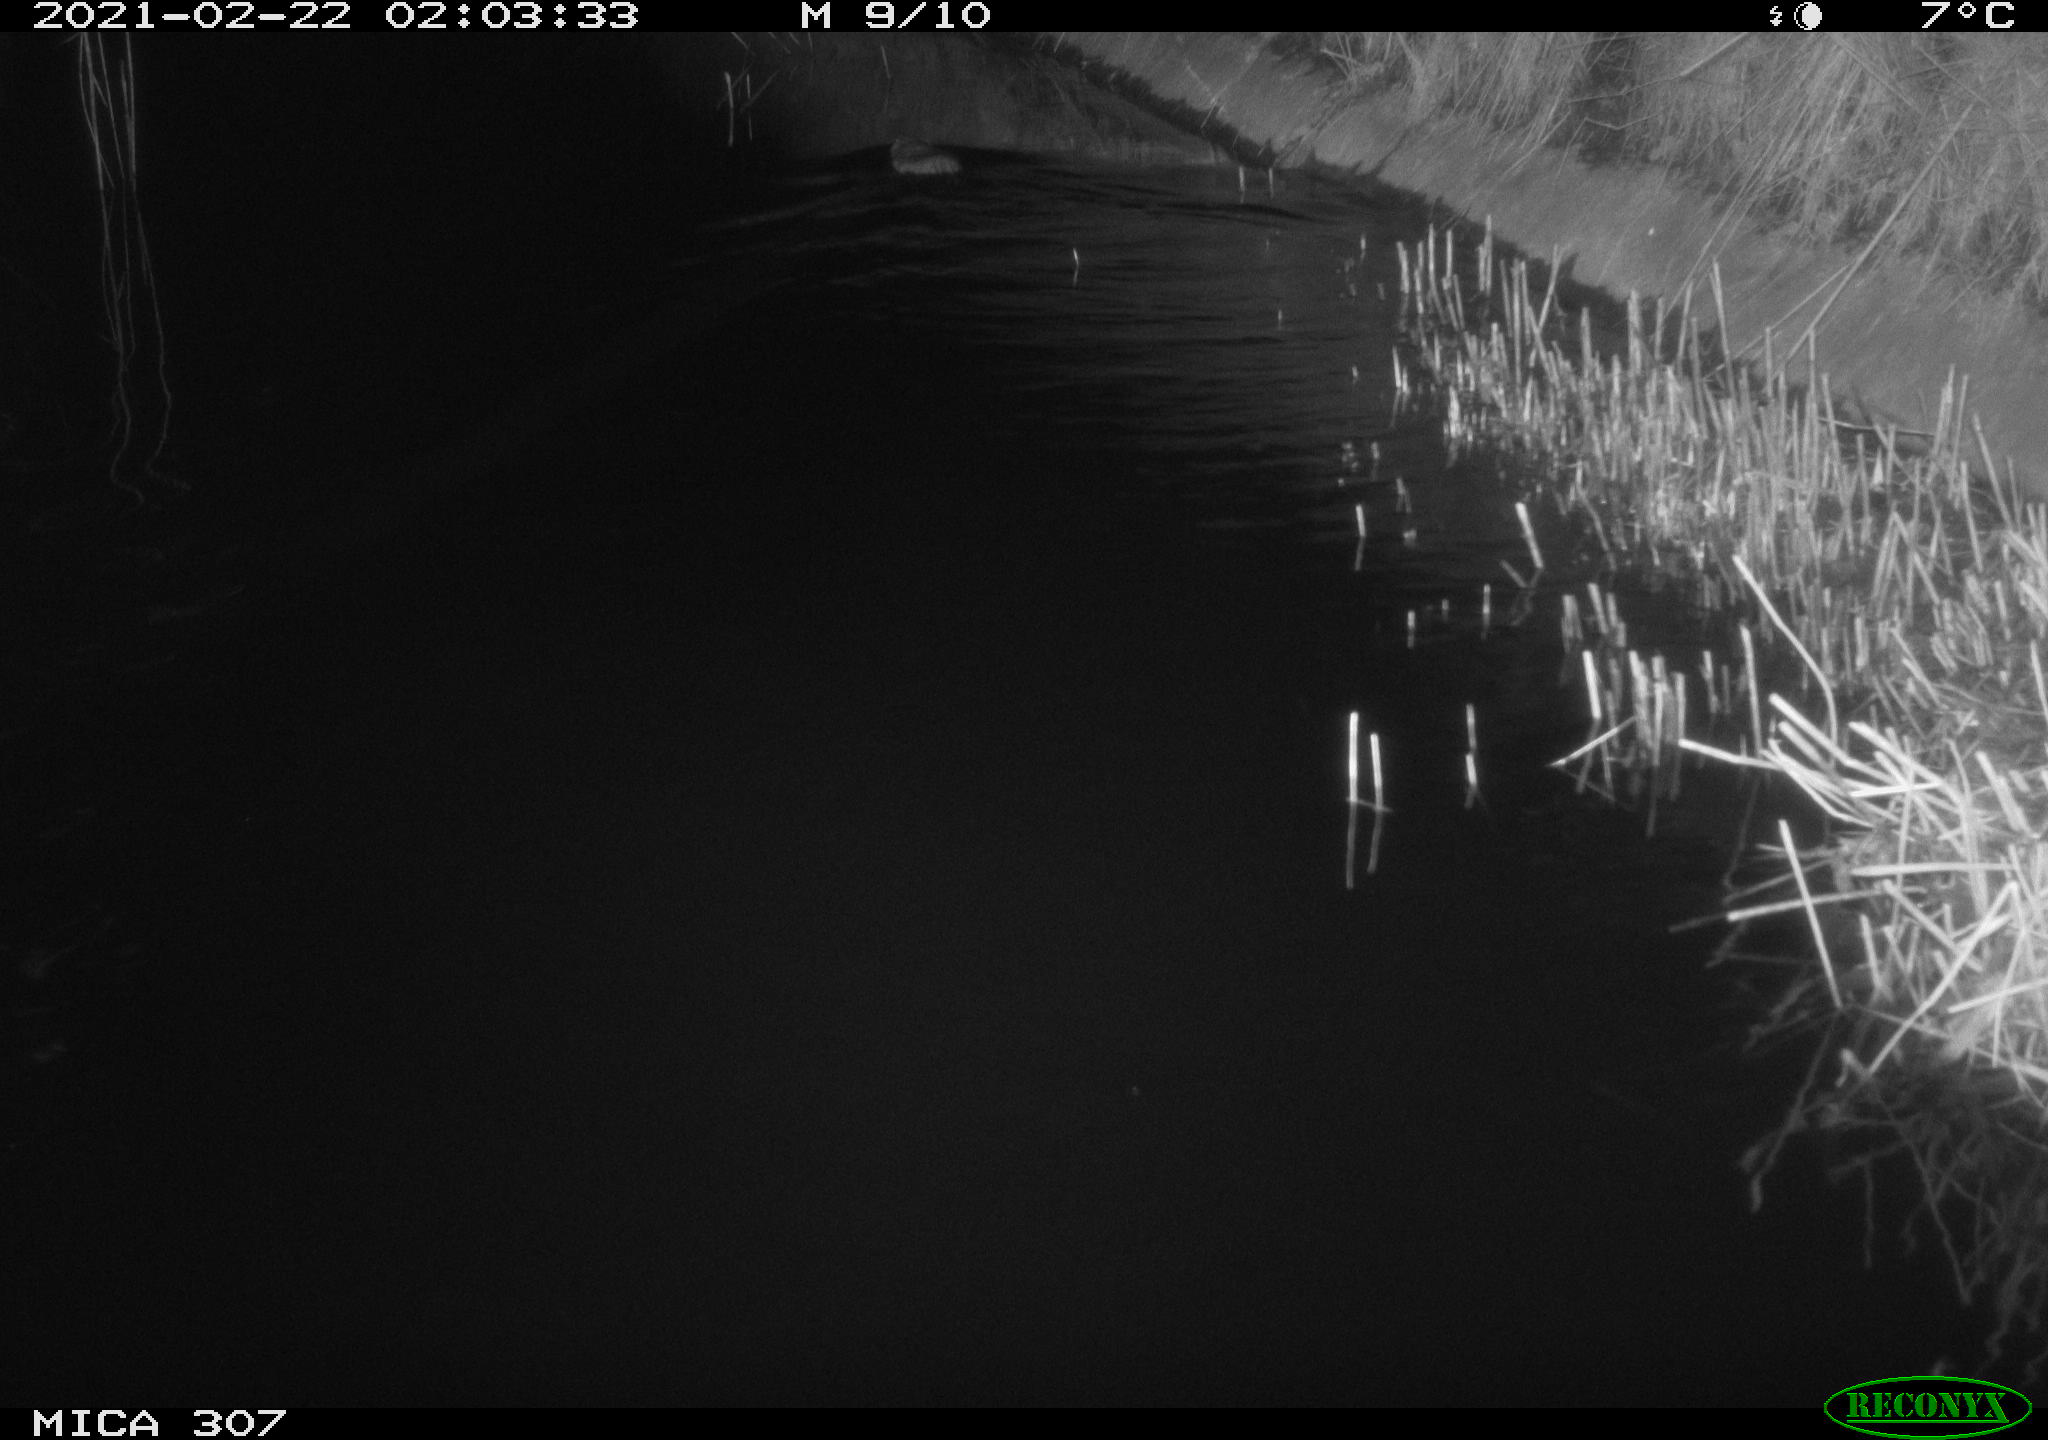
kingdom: Animalia
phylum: Chordata
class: Mammalia
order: Rodentia
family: Cricetidae
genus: Ondatra
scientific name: Ondatra zibethicus
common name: Muskrat
